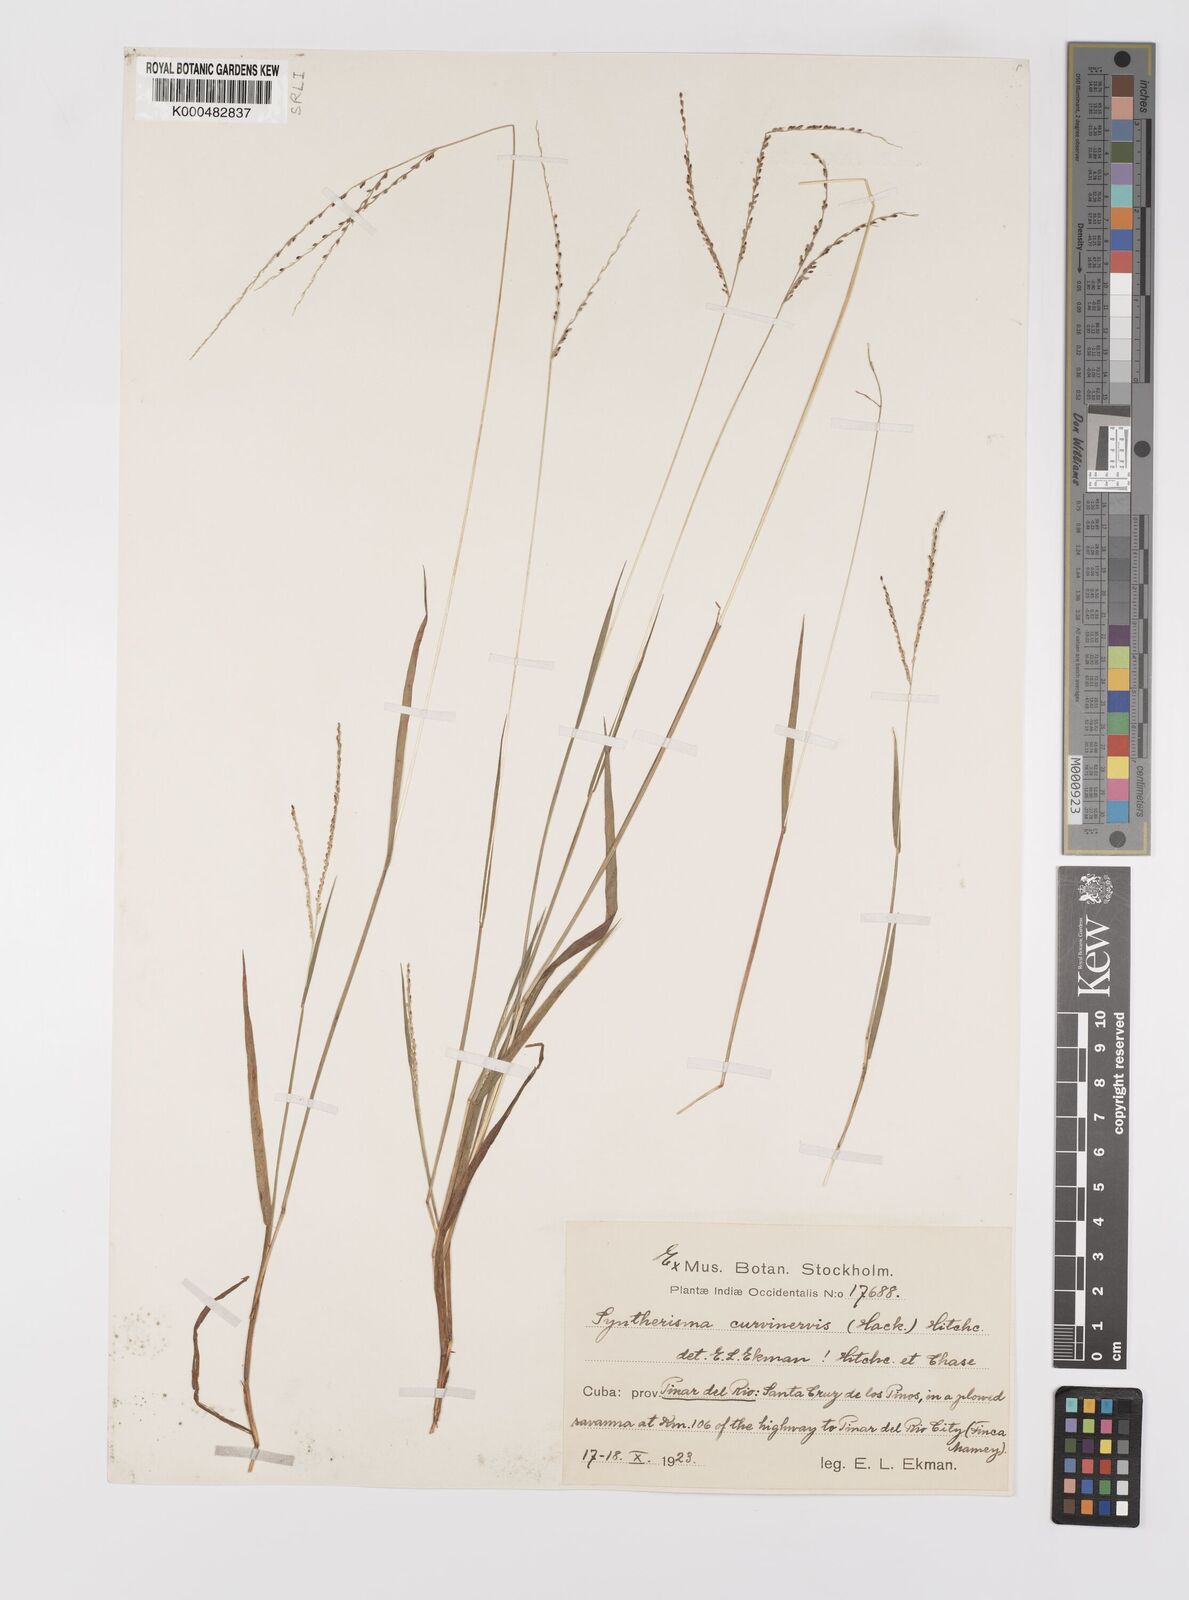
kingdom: Plantae
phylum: Tracheophyta
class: Liliopsida
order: Poales
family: Poaceae
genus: Digitaria
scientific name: Digitaria curvinervis
